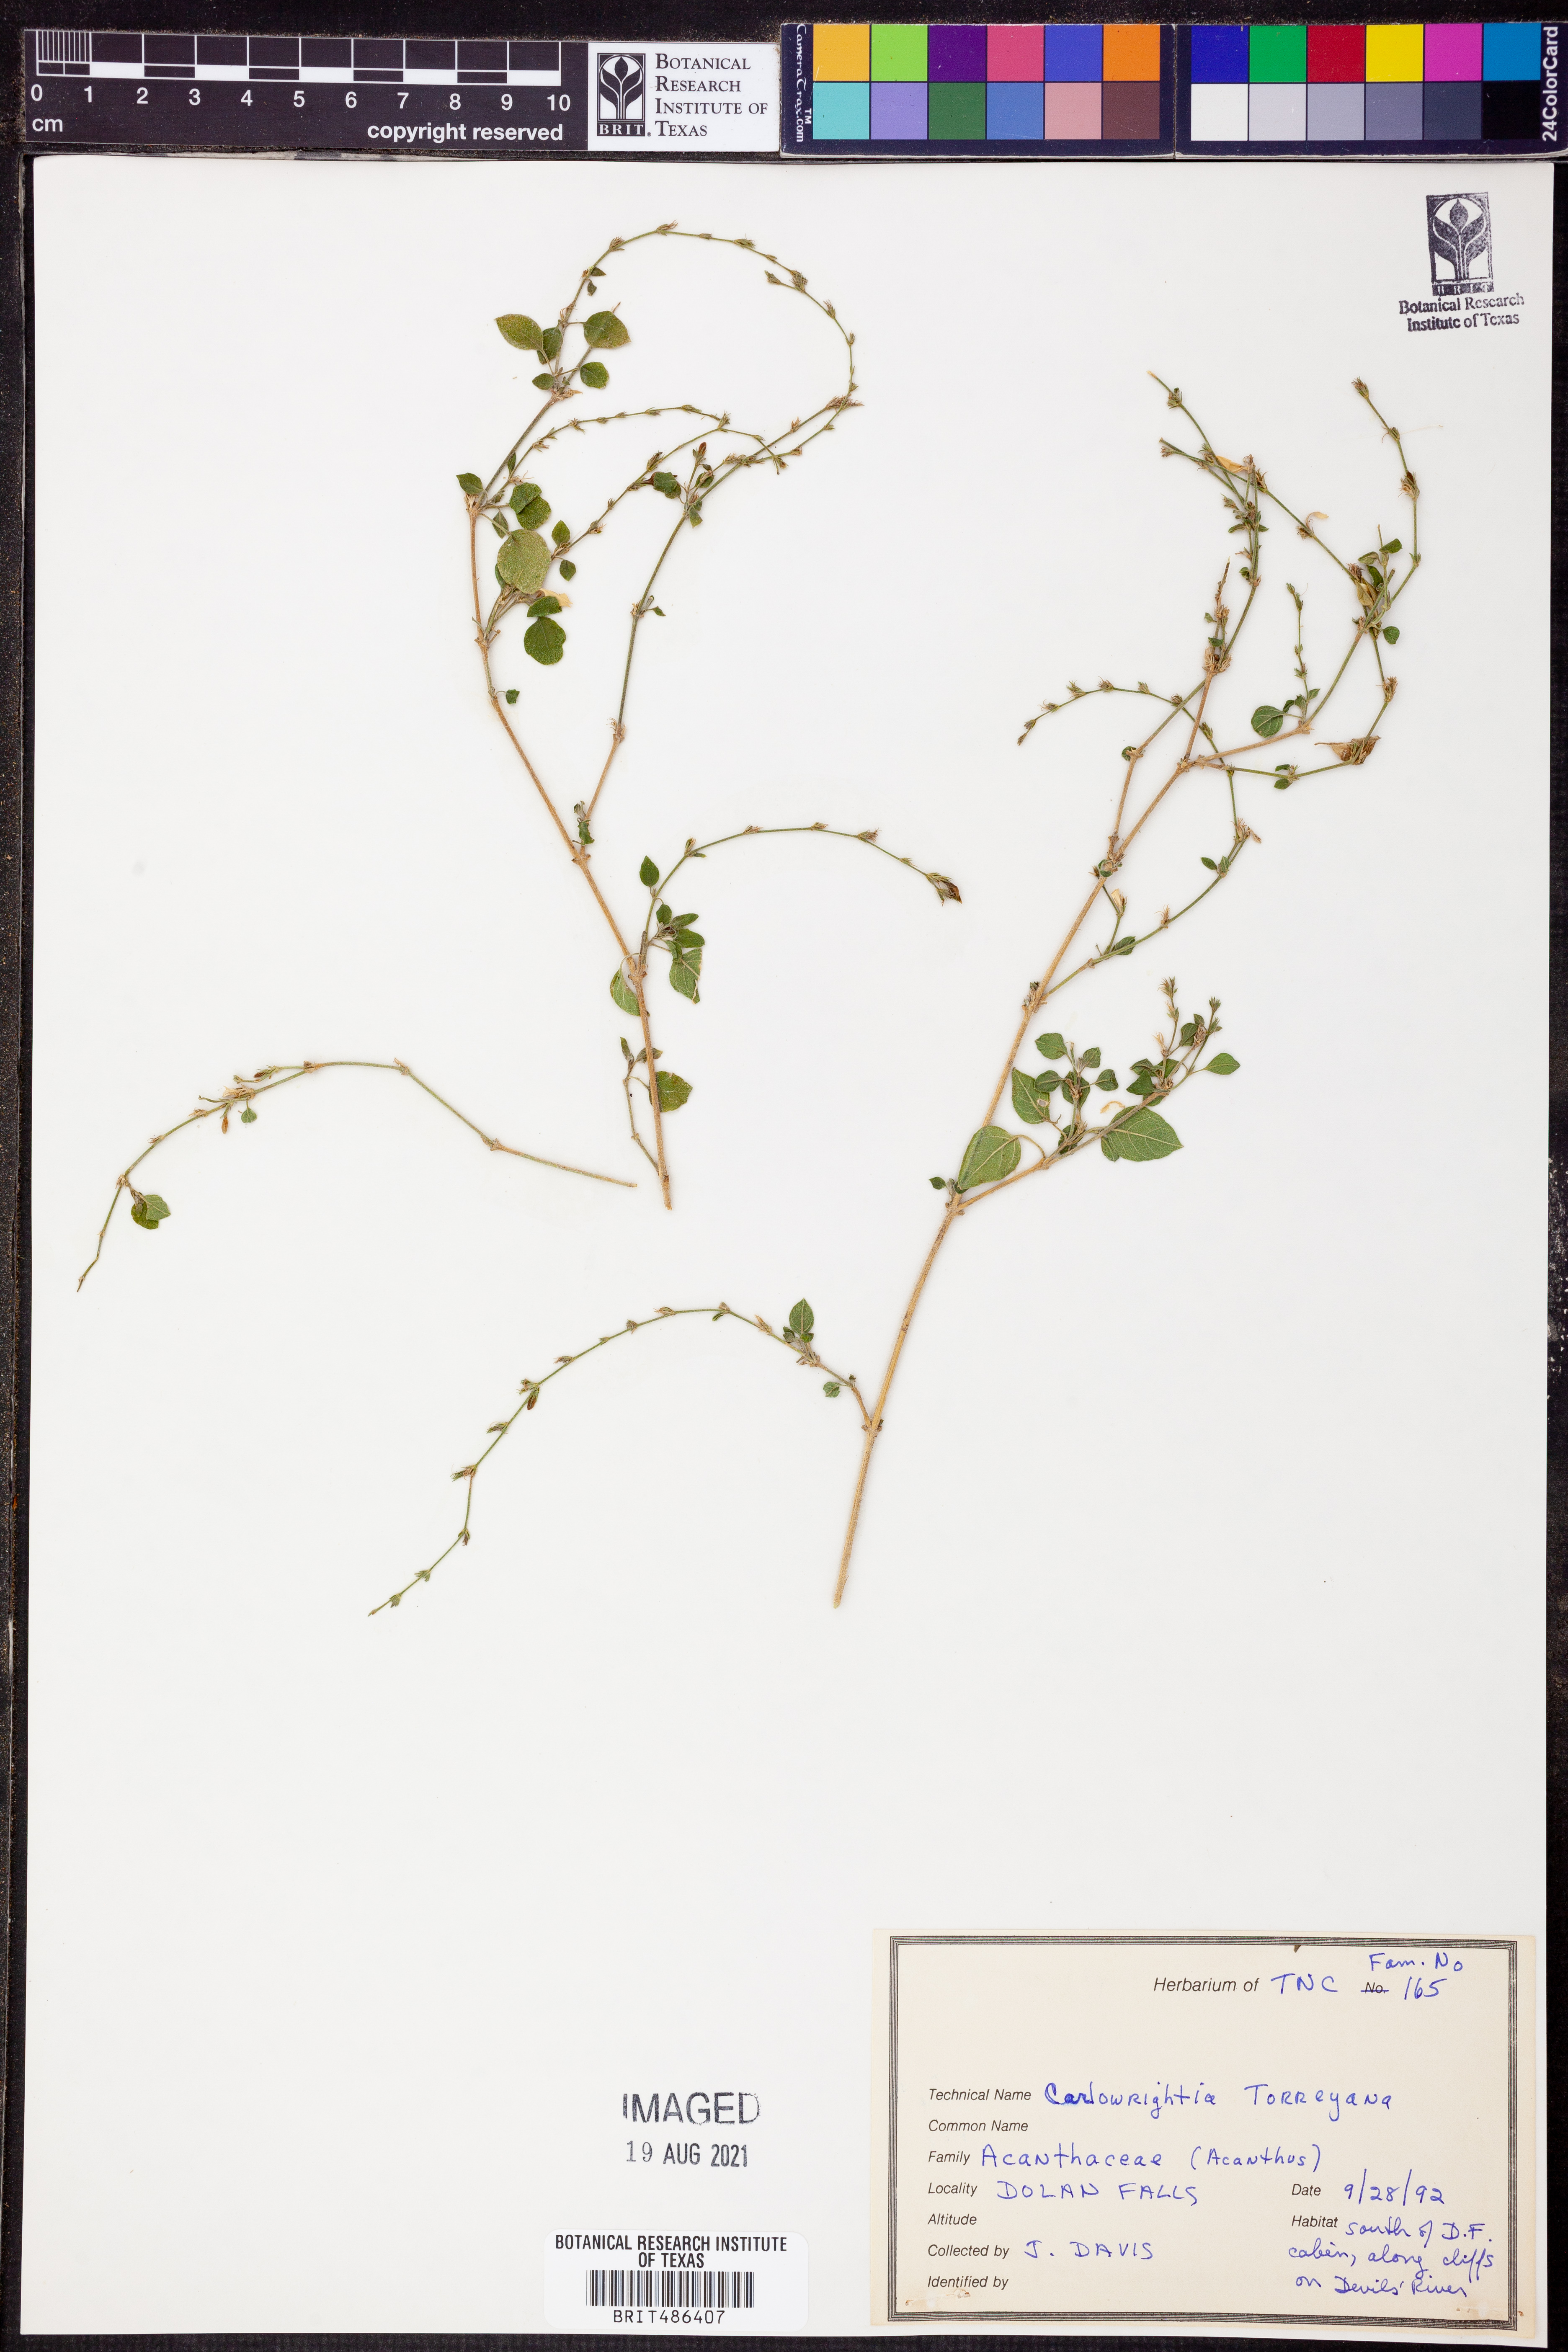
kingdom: Plantae
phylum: Tracheophyta
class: Magnoliopsida
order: Lamiales
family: Acanthaceae
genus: Carlowrightia
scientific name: Carlowrightia torreyana
